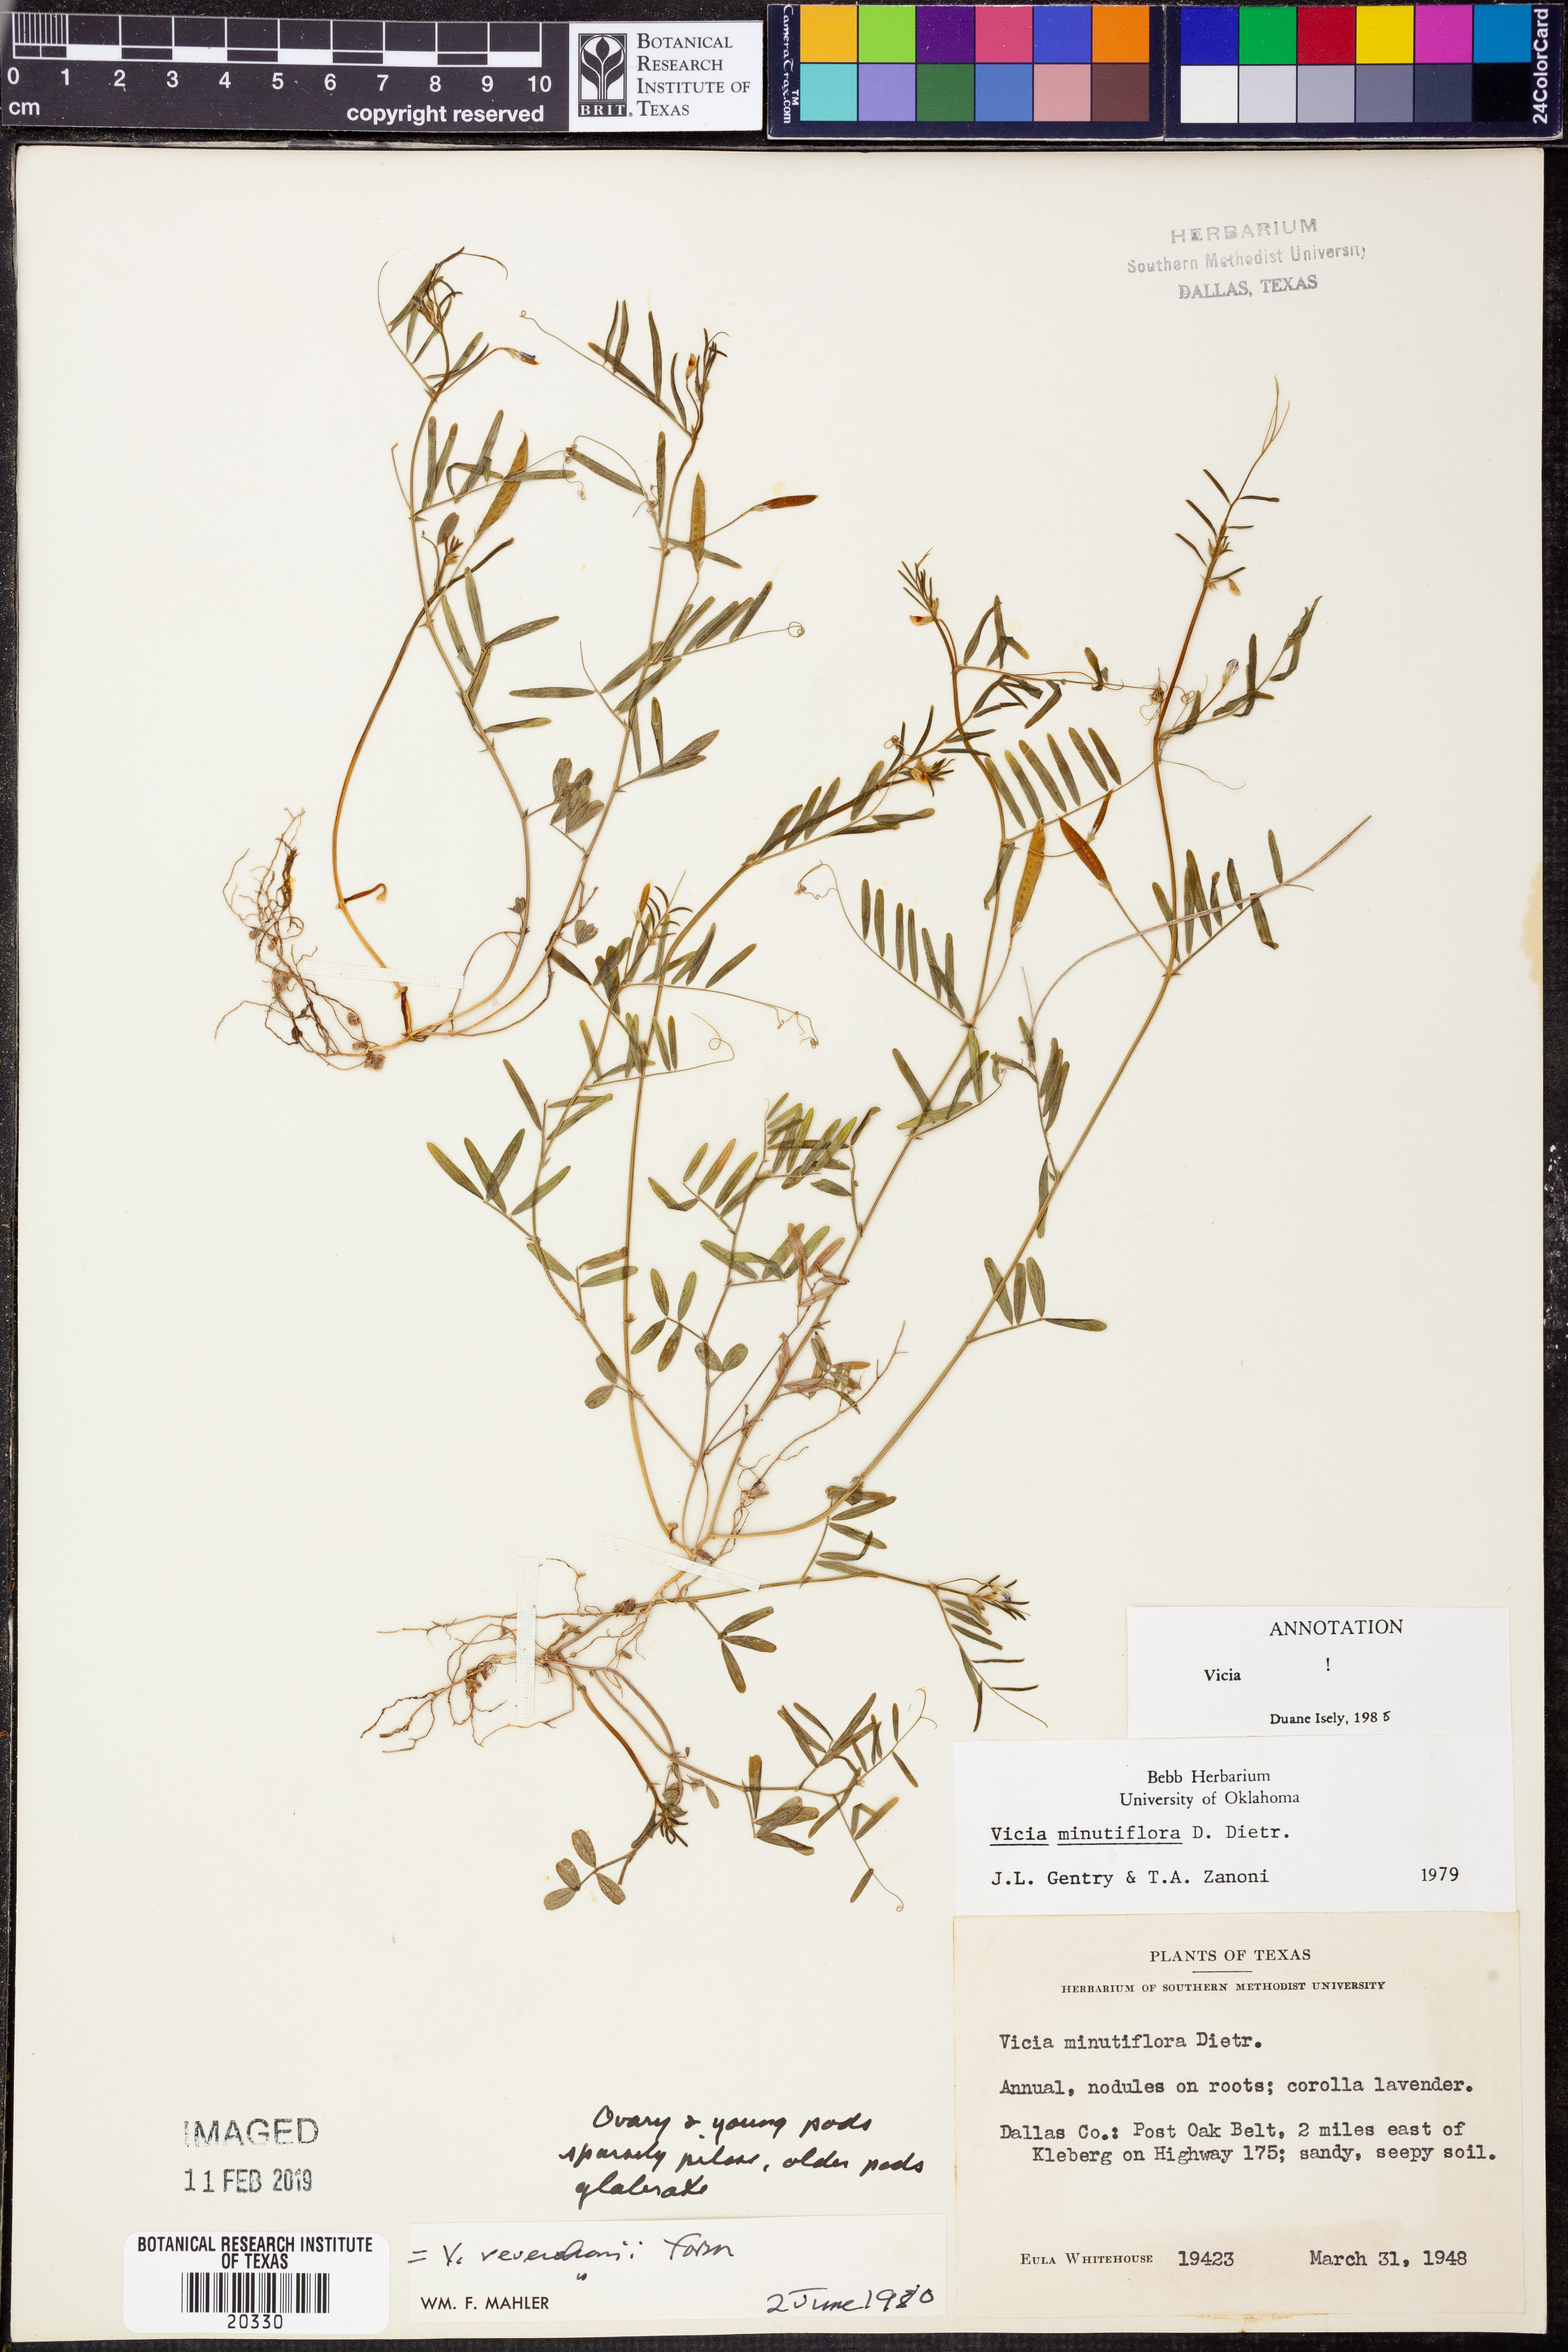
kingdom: Plantae
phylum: Tracheophyta
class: Magnoliopsida
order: Fabales
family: Fabaceae
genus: Vicia
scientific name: Vicia minutiflora
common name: Pygmy-flower vetch
